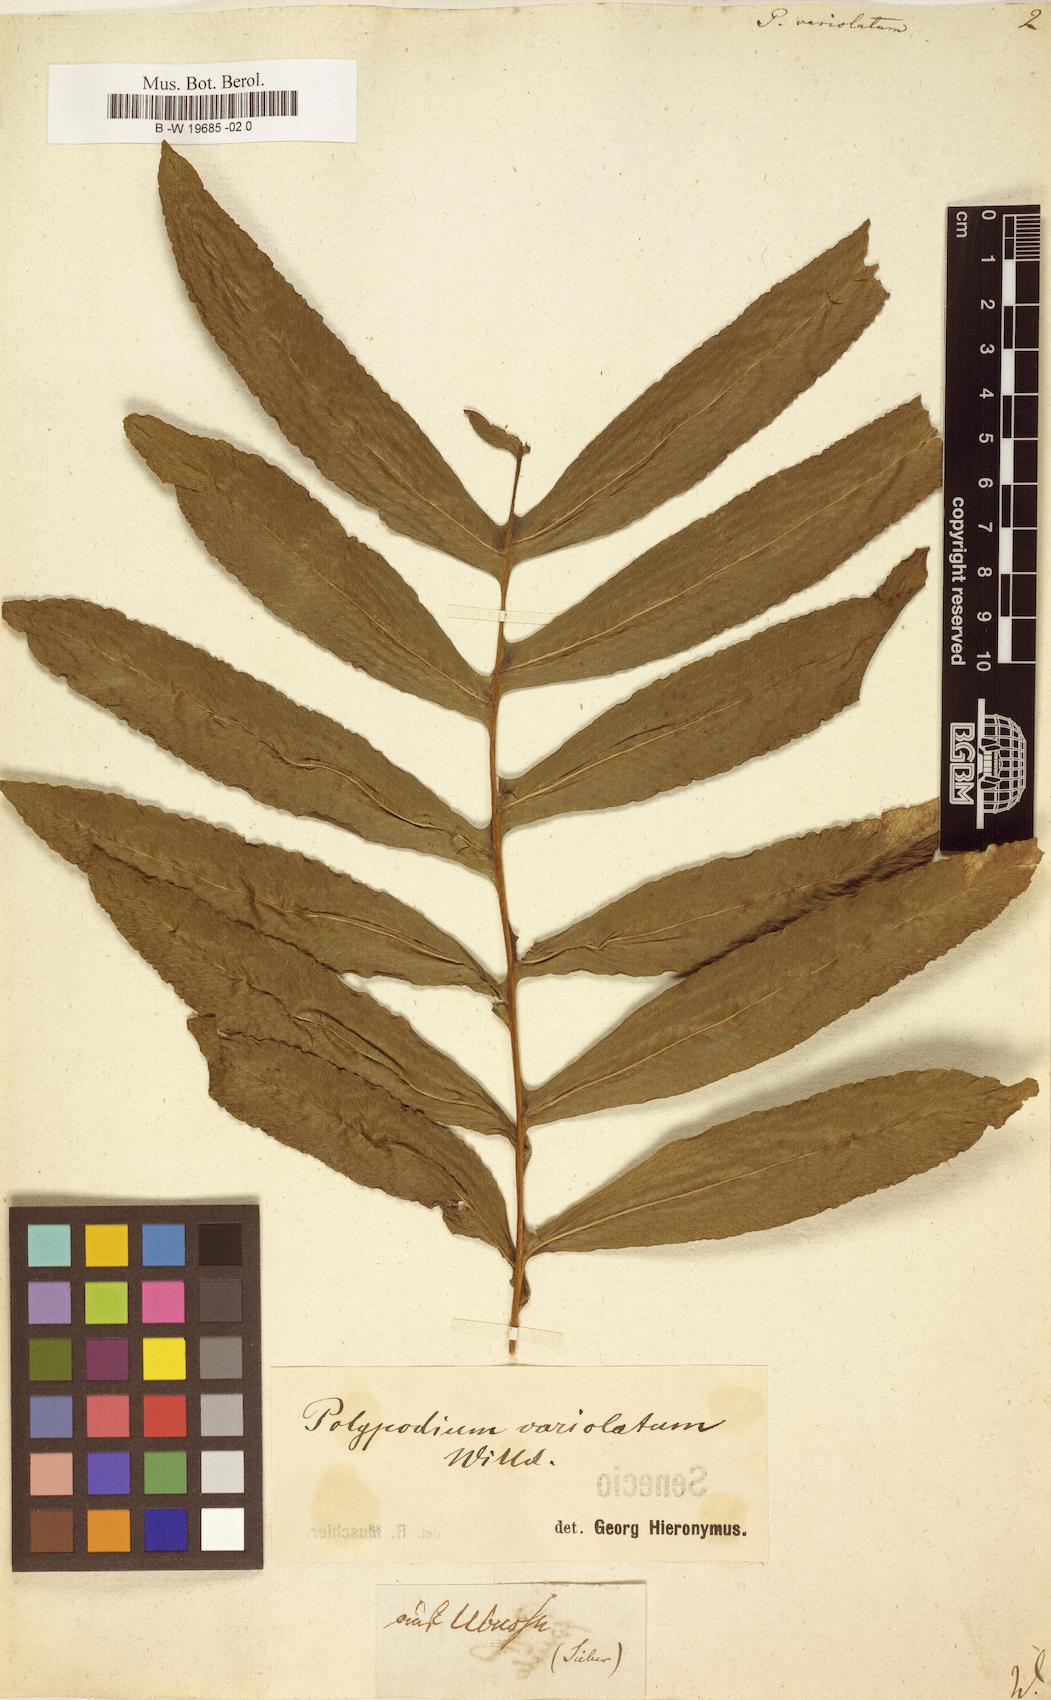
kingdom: Plantae
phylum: Tracheophyta
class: Polypodiopsida
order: Polypodiales
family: Polypodiaceae
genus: Serpocaulon
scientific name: Serpocaulon triseriale
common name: Angle-vein fern
